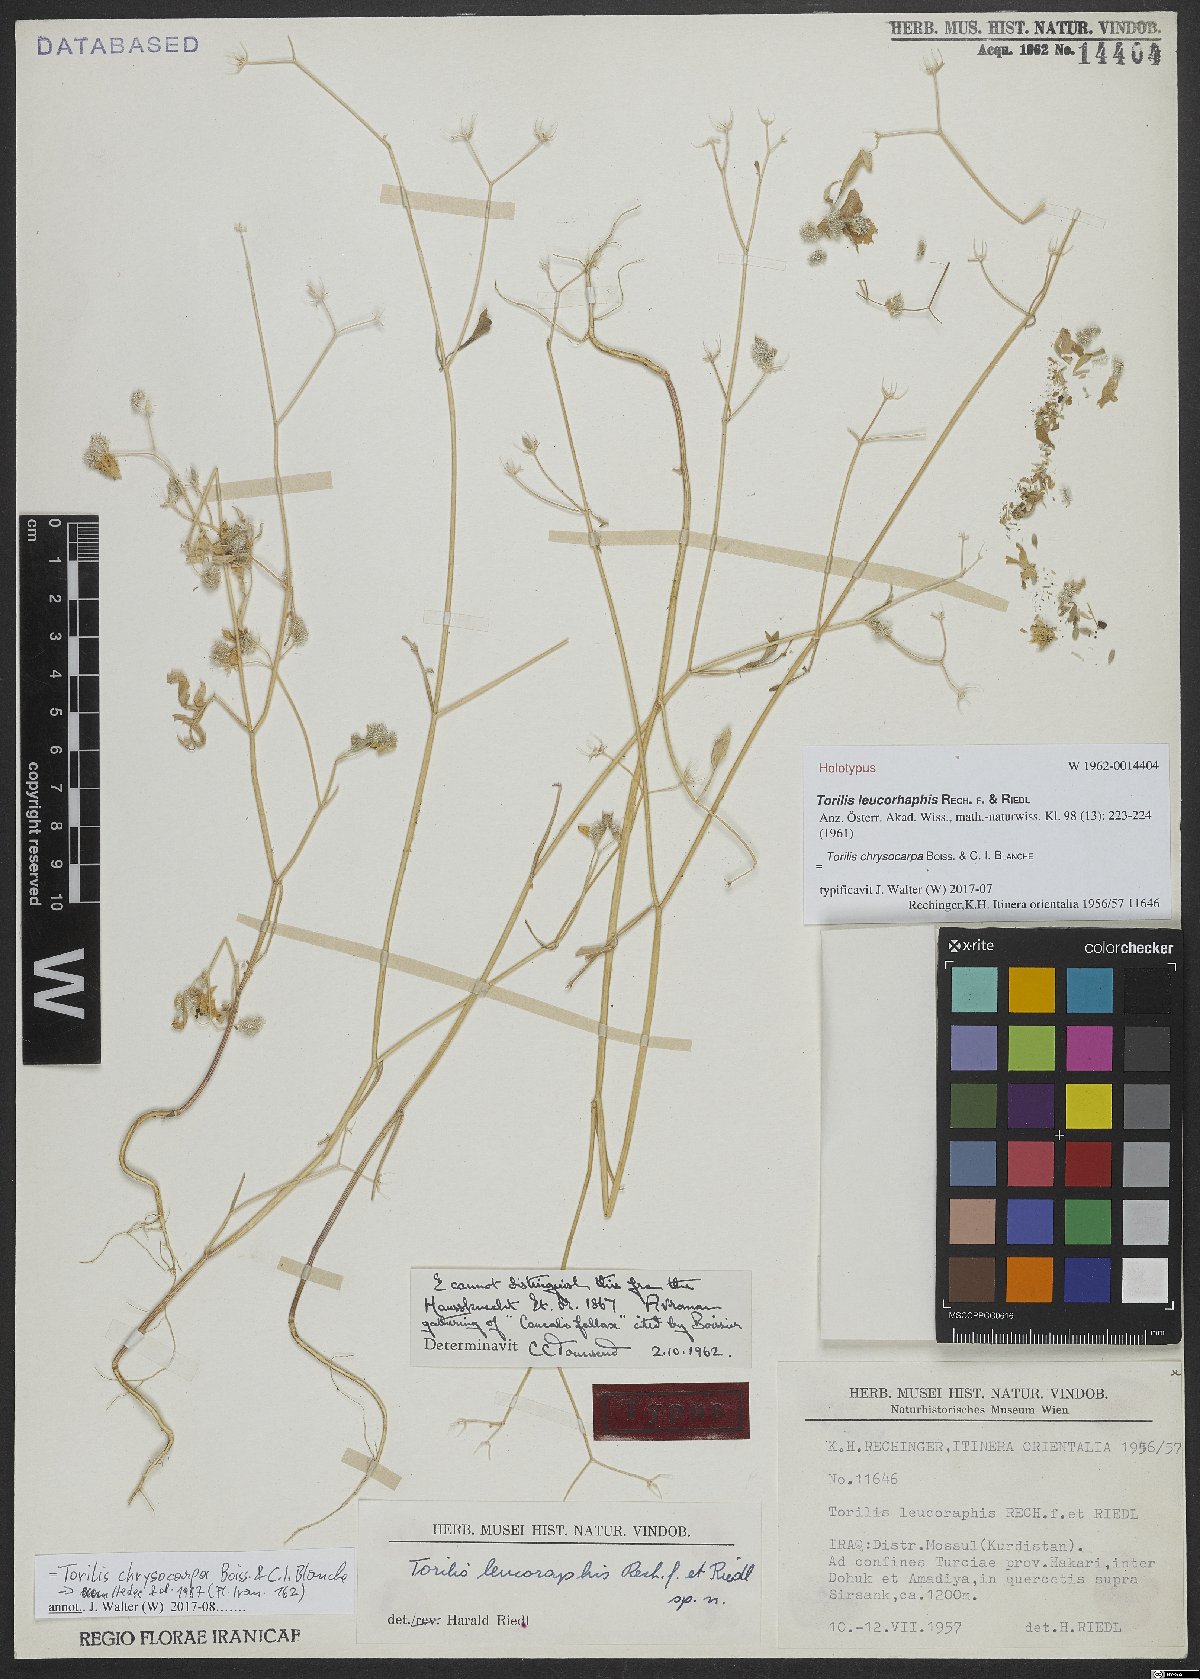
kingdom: Plantae
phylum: Tracheophyta
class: Magnoliopsida
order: Apiales
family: Apiaceae
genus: Torilis
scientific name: Torilis chrysocarpa
